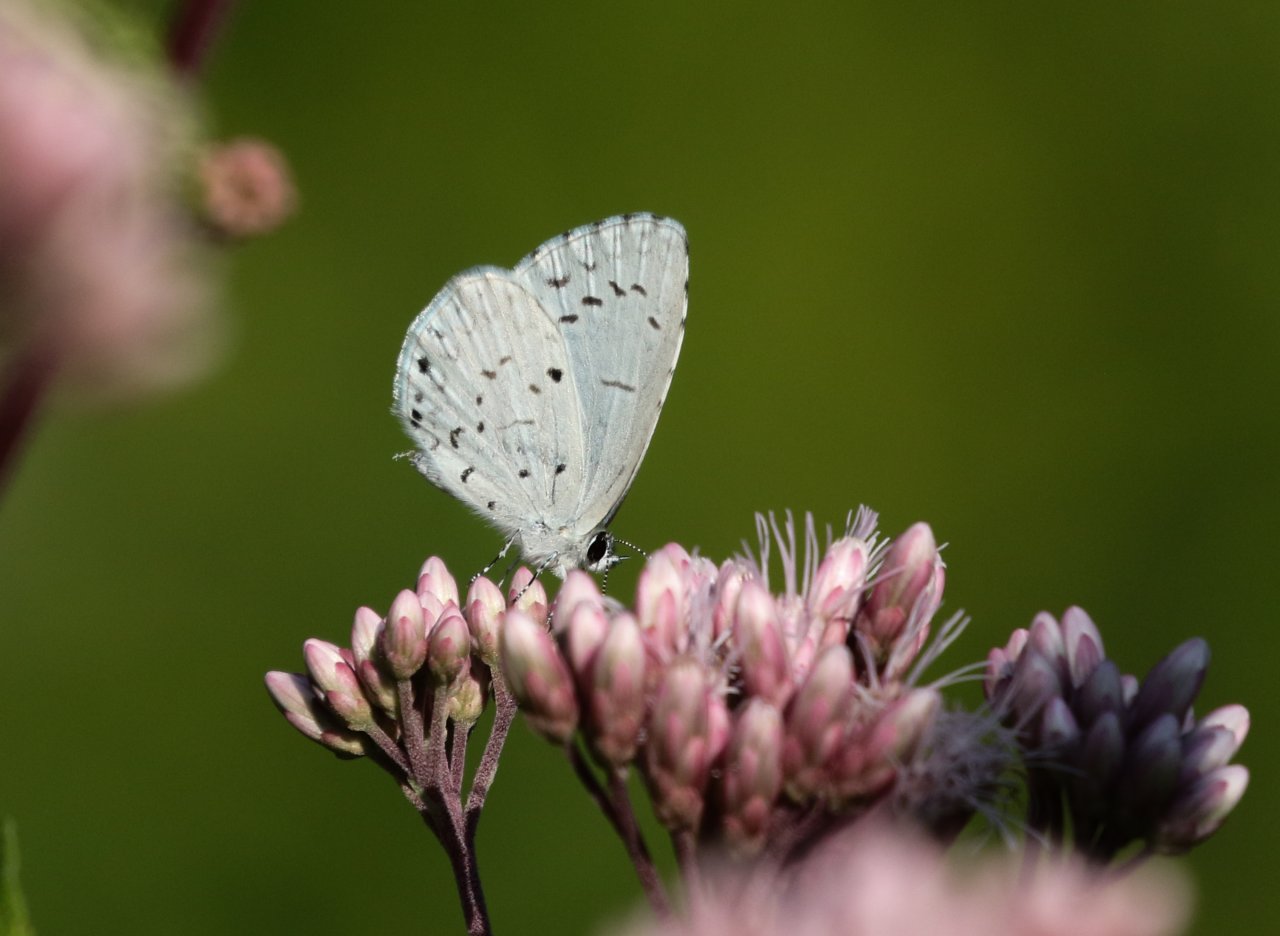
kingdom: Animalia
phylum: Arthropoda
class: Insecta
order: Lepidoptera
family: Lycaenidae
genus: Cyaniris
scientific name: Cyaniris neglecta
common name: Summer Azure
